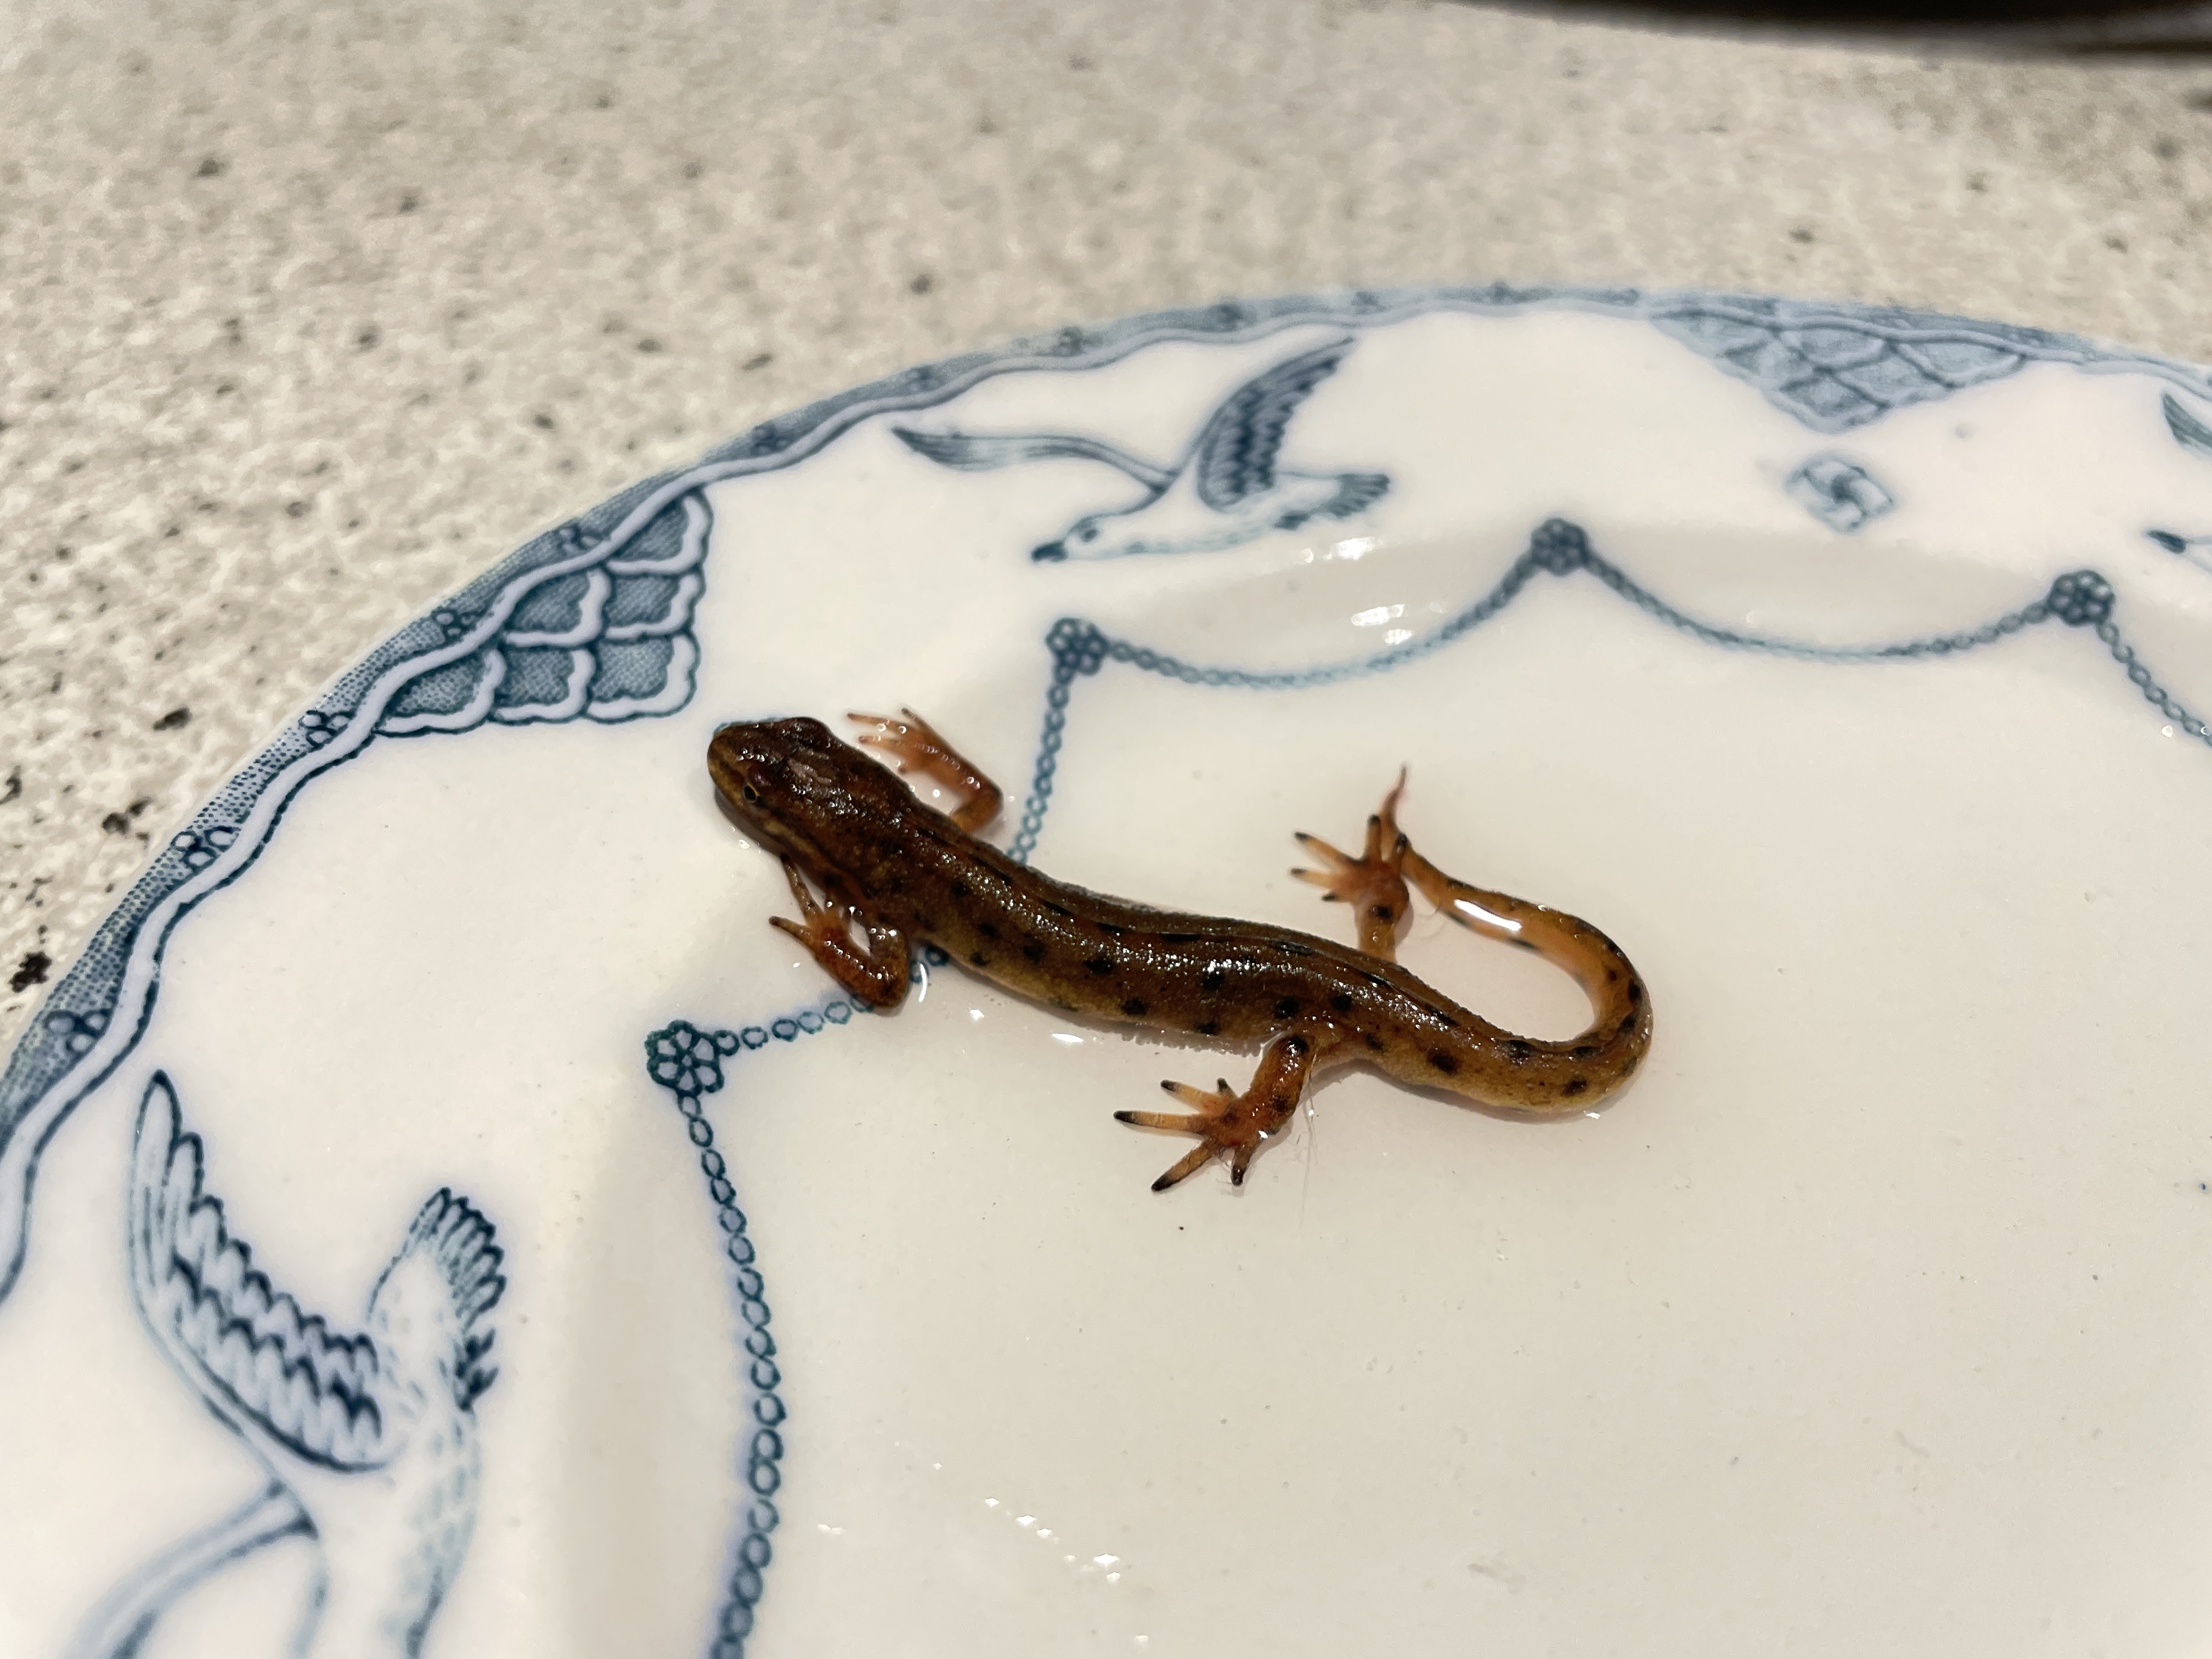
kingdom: Animalia
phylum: Chordata
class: Amphibia
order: Caudata
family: Salamandridae
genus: Lissotriton
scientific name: Lissotriton vulgaris
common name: Lille vandsalamander
